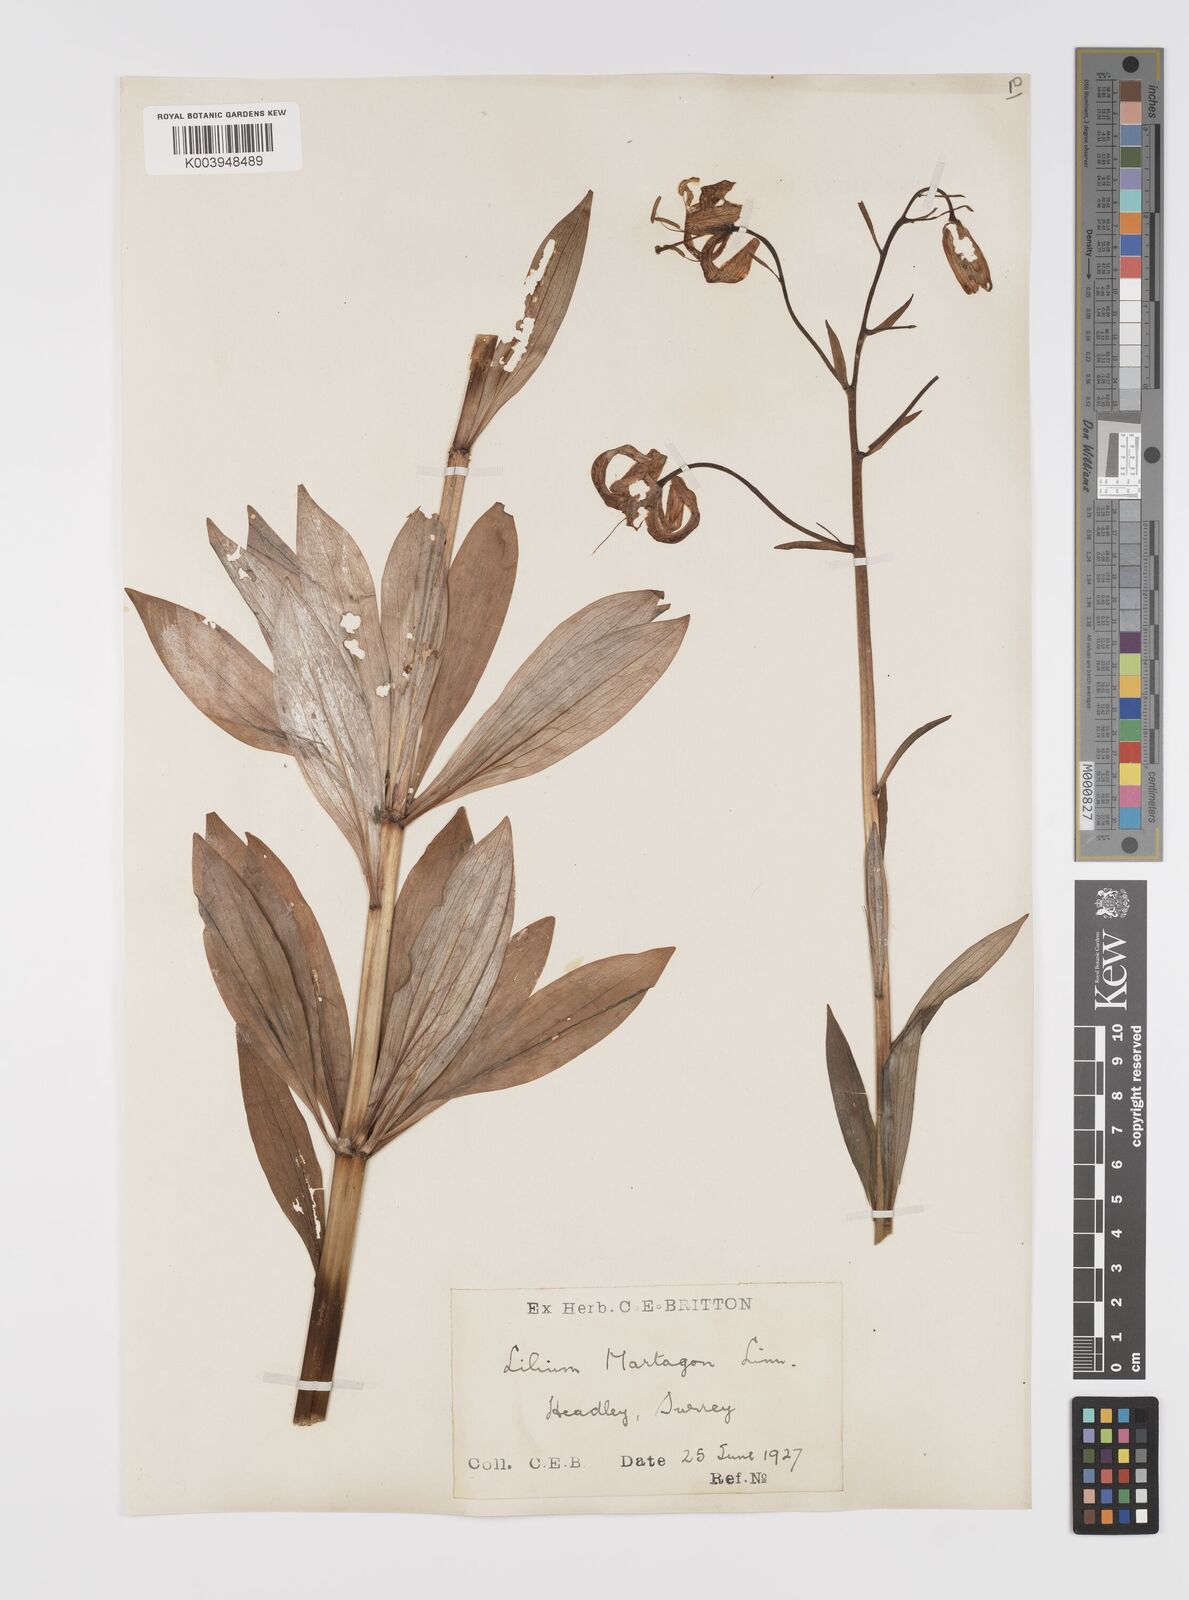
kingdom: Plantae
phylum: Tracheophyta
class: Liliopsida
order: Liliales
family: Liliaceae
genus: Lilium
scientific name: Lilium martagon
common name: Martagon lily
